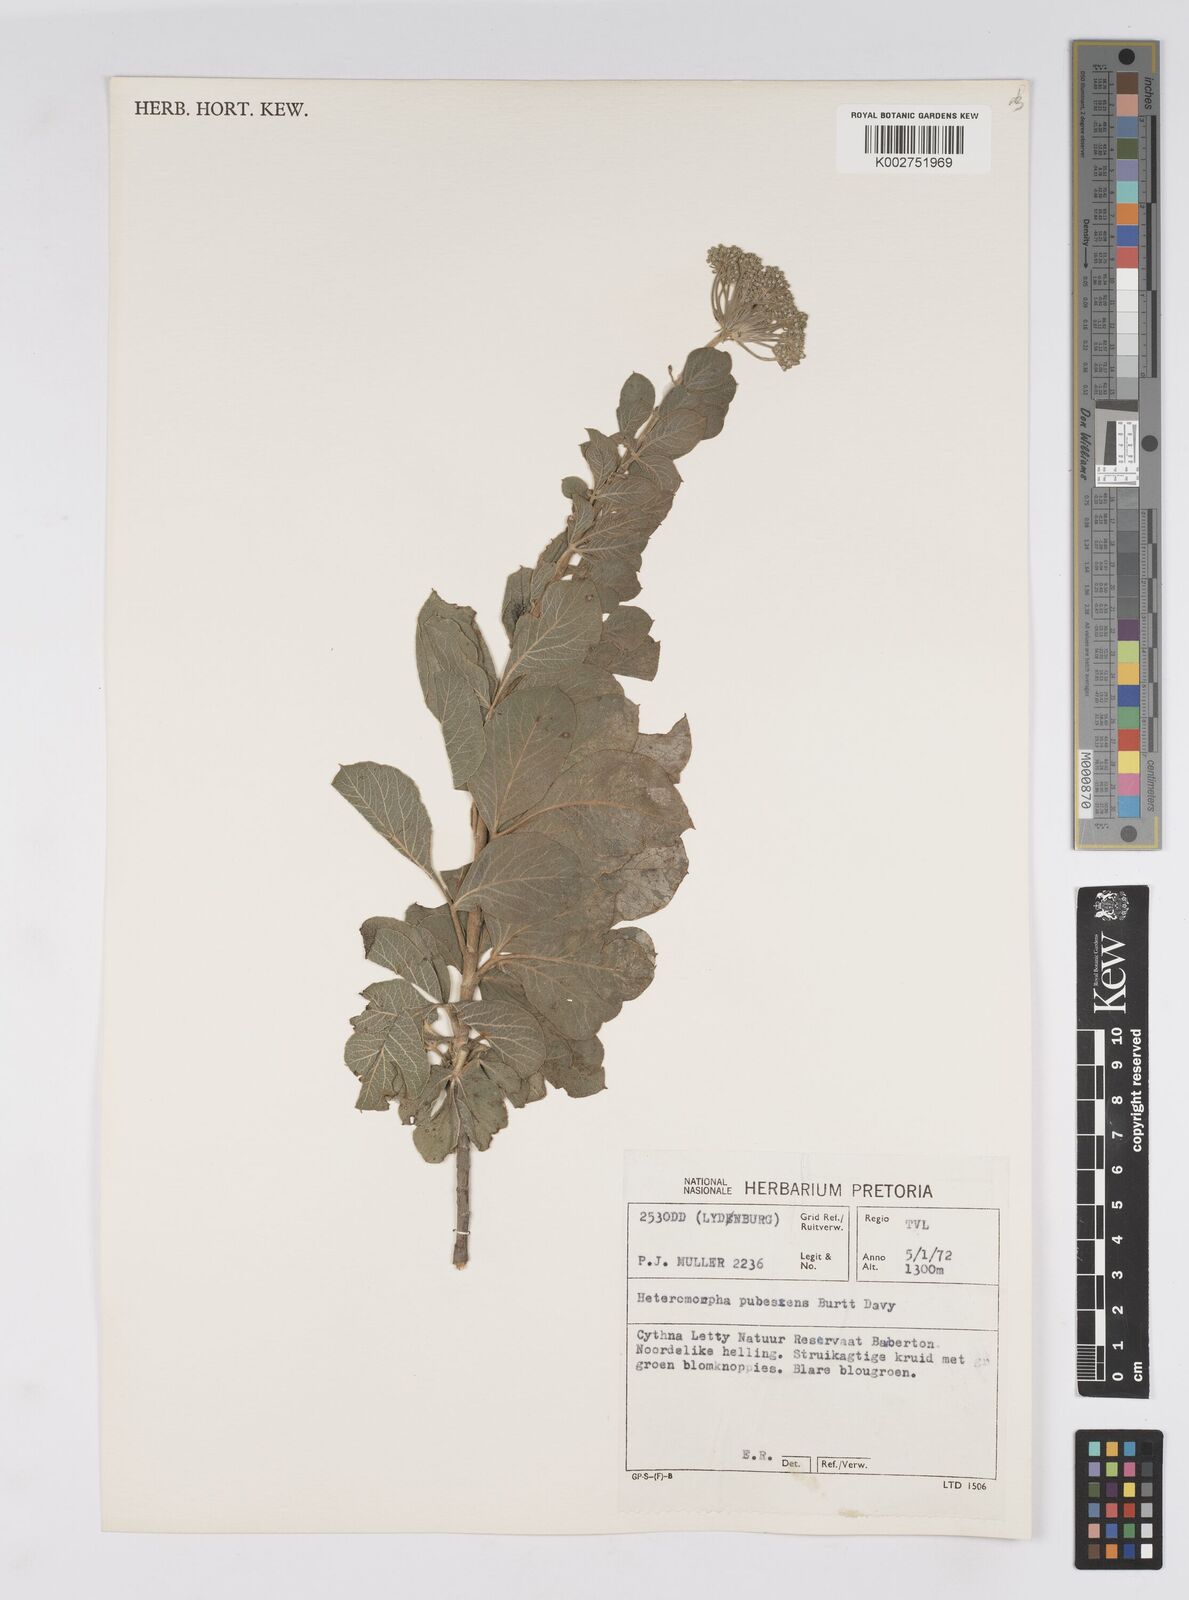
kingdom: Plantae
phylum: Tracheophyta
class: Magnoliopsida
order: Apiales
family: Apiaceae
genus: Heteromorpha
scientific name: Heteromorpha pubescens
